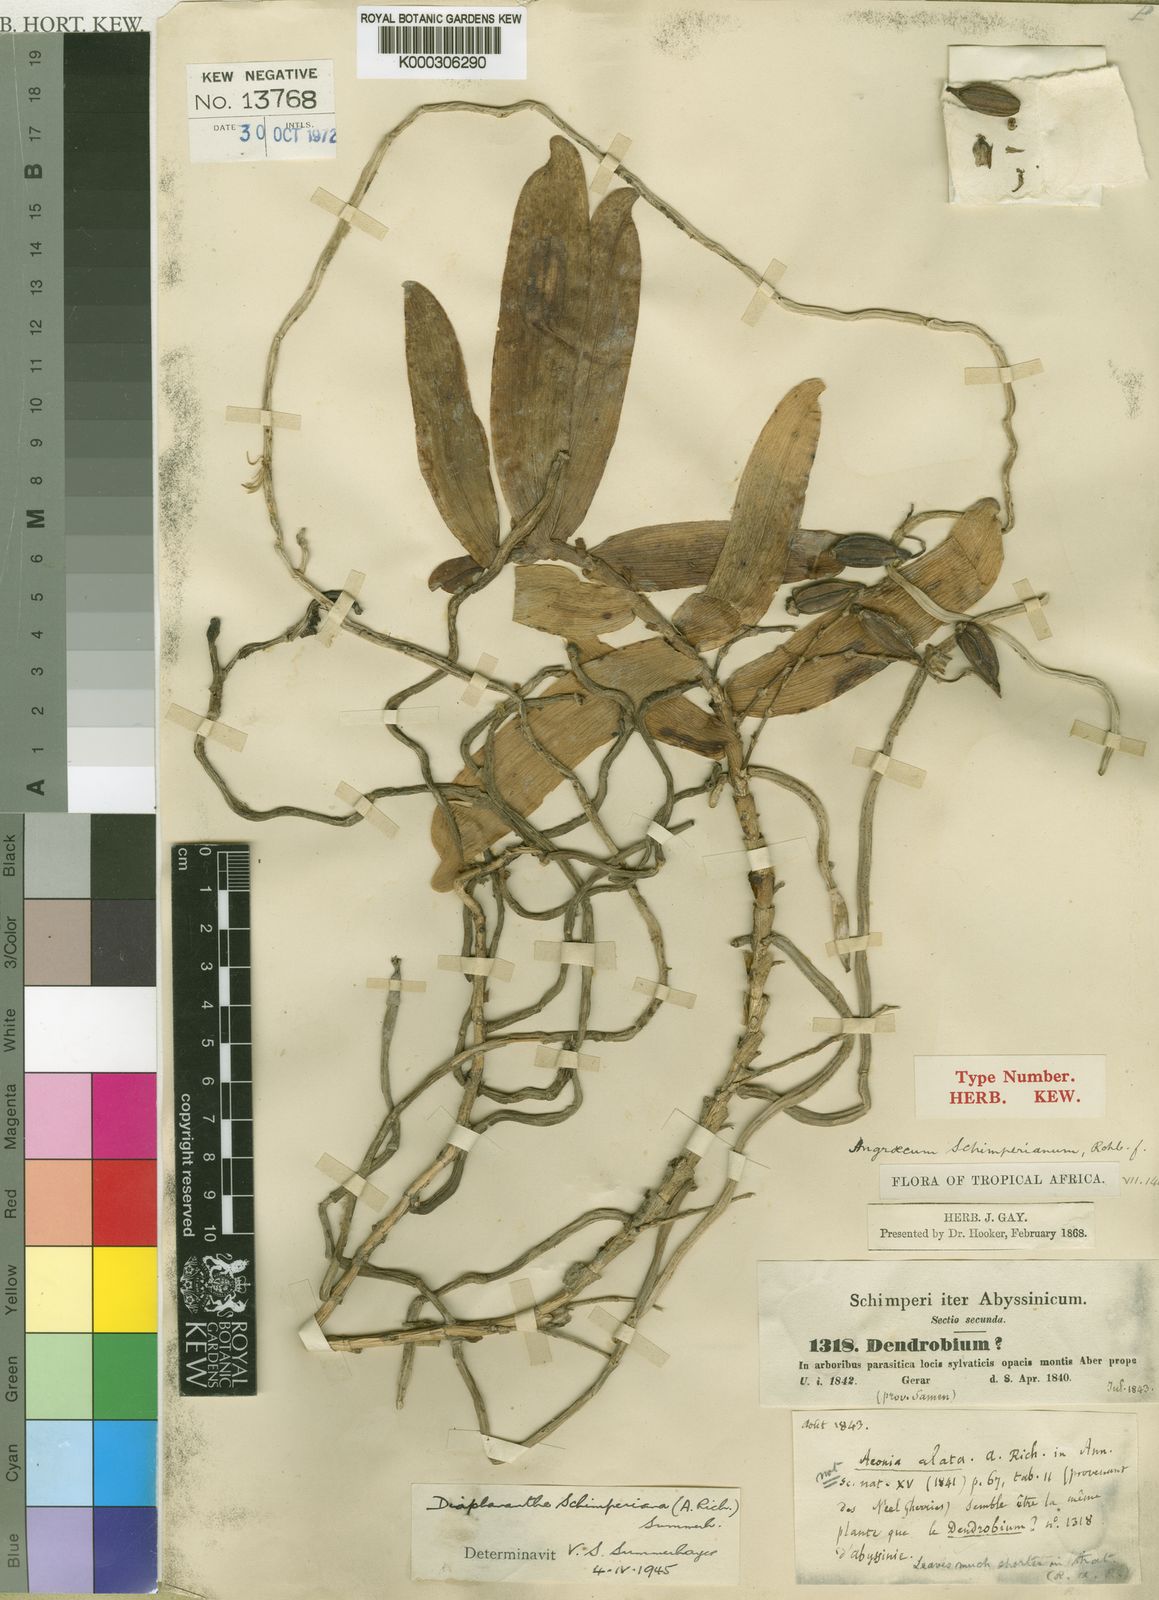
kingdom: Plantae
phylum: Tracheophyta
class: Liliopsida
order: Asparagales
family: Orchidaceae
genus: Rhipidoglossum
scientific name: Rhipidoglossum schimperianum
